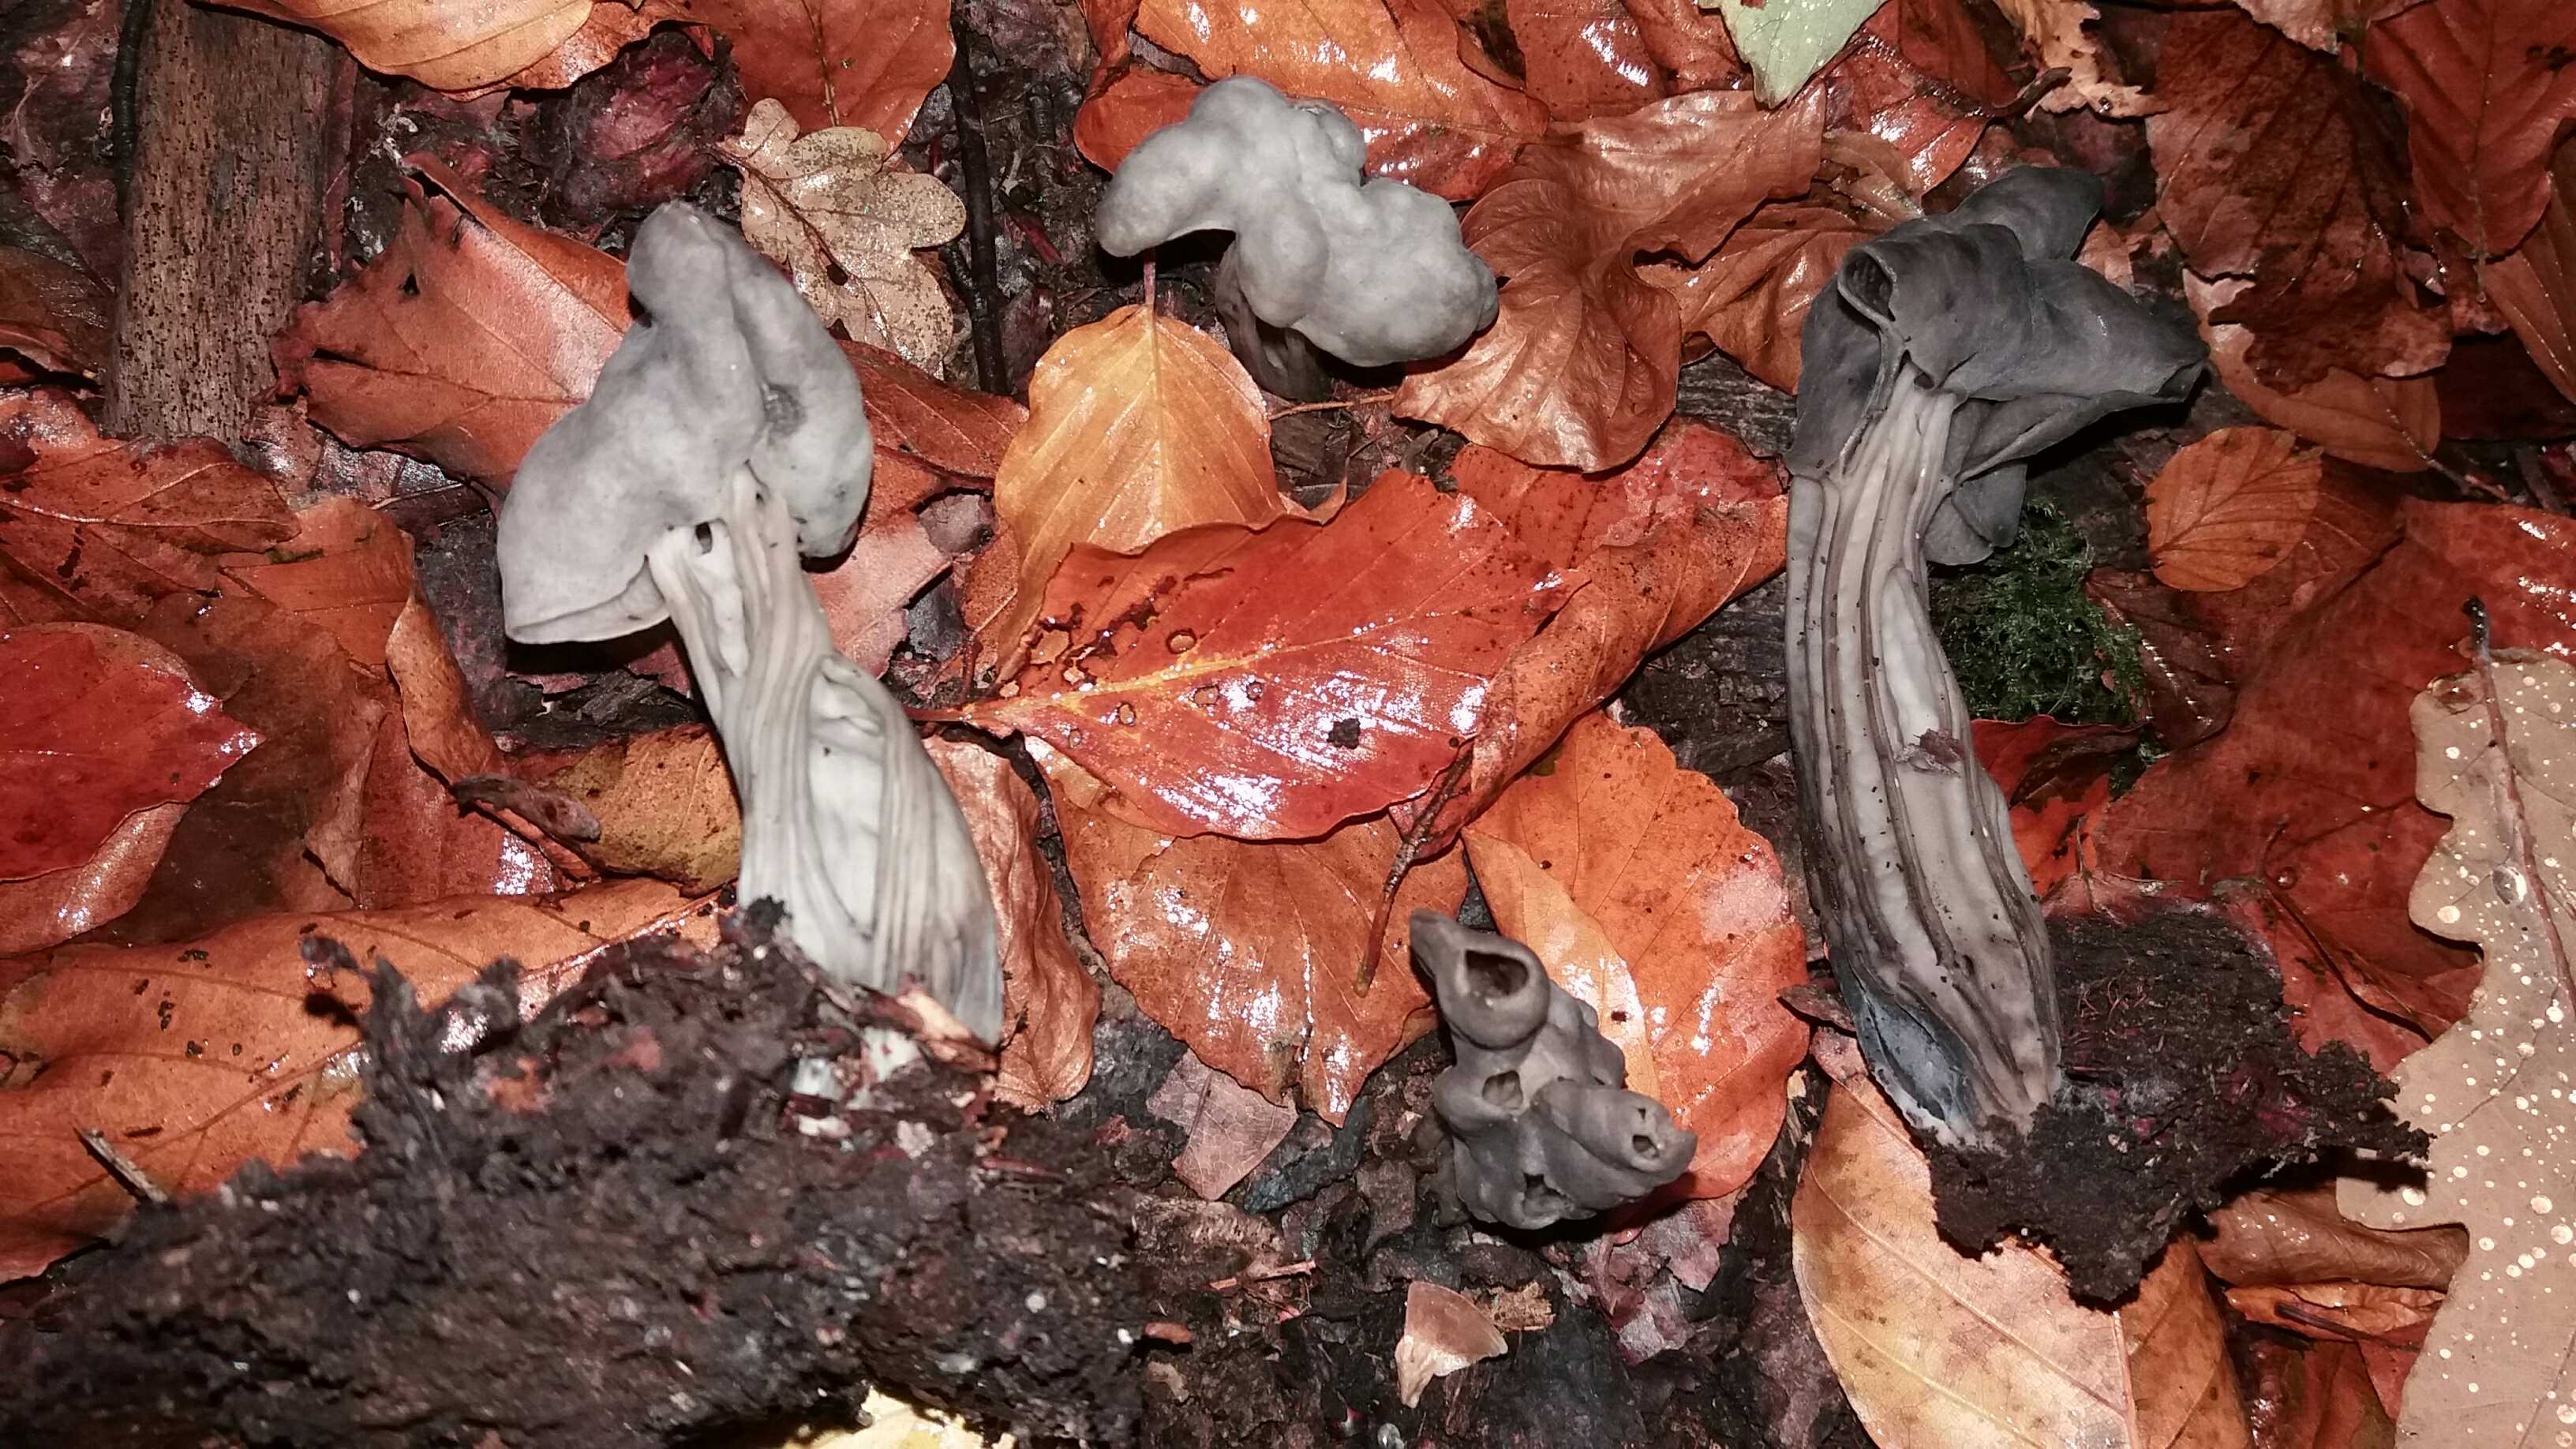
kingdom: Fungi
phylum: Ascomycota
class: Pezizomycetes
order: Pezizales
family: Helvellaceae
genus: Helvella
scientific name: Helvella lacunosa
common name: grubet foldhat
